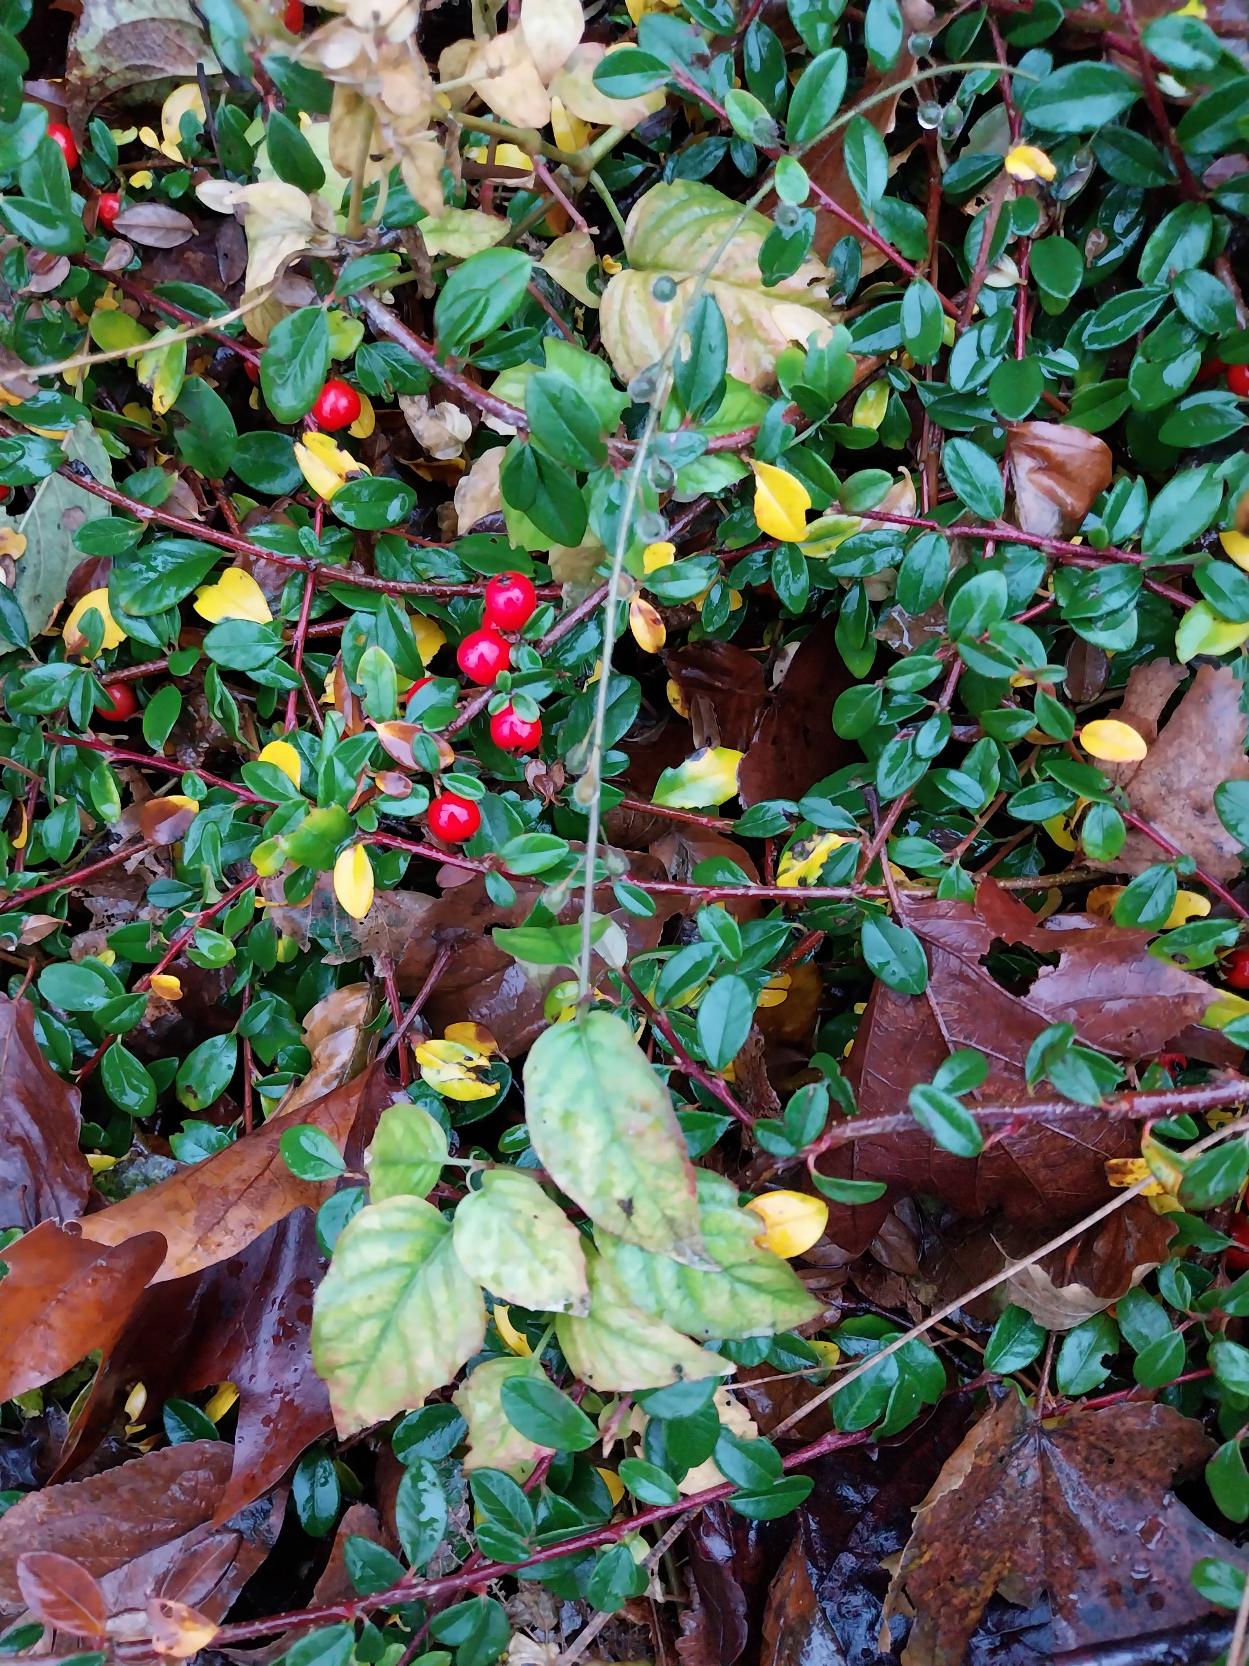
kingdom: Plantae
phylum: Tracheophyta
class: Magnoliopsida
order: Myrtales
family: Onagraceae
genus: Circaea
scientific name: Circaea lutetiana
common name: Dunet steffensurt
